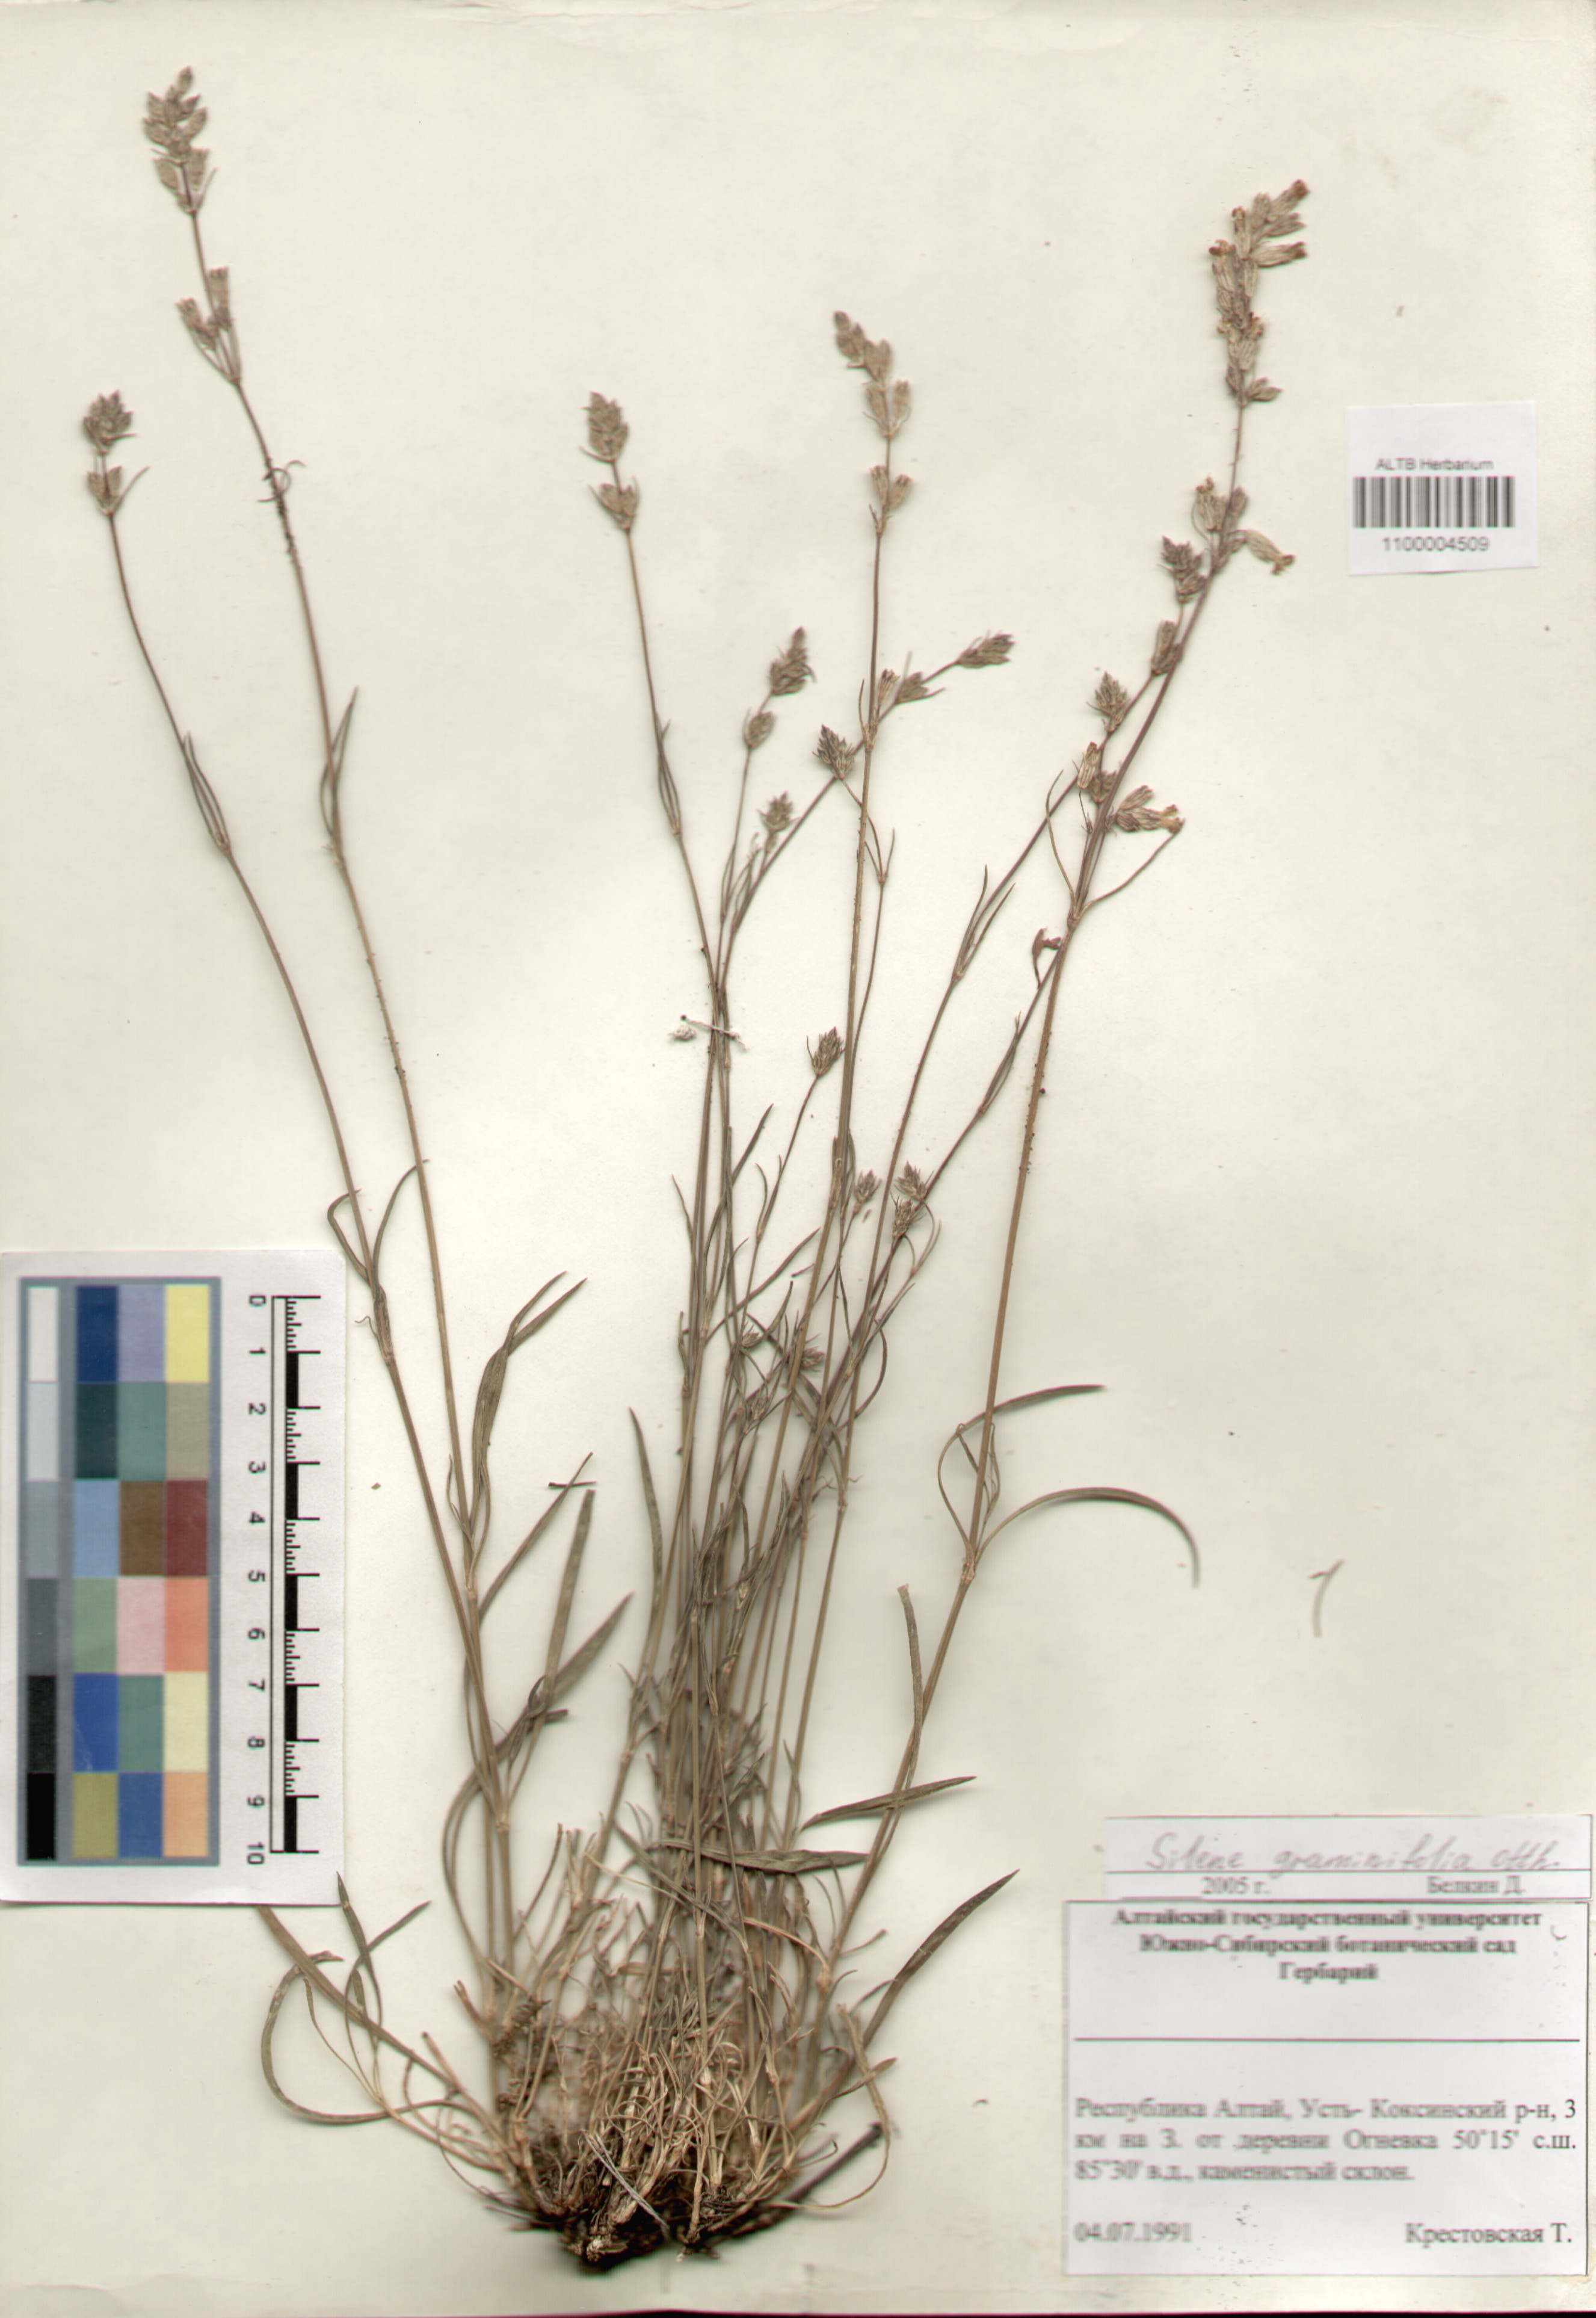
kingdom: Plantae
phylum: Tracheophyta
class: Magnoliopsida
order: Caryophyllales
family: Caryophyllaceae
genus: Silene
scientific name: Silene graminifolia
